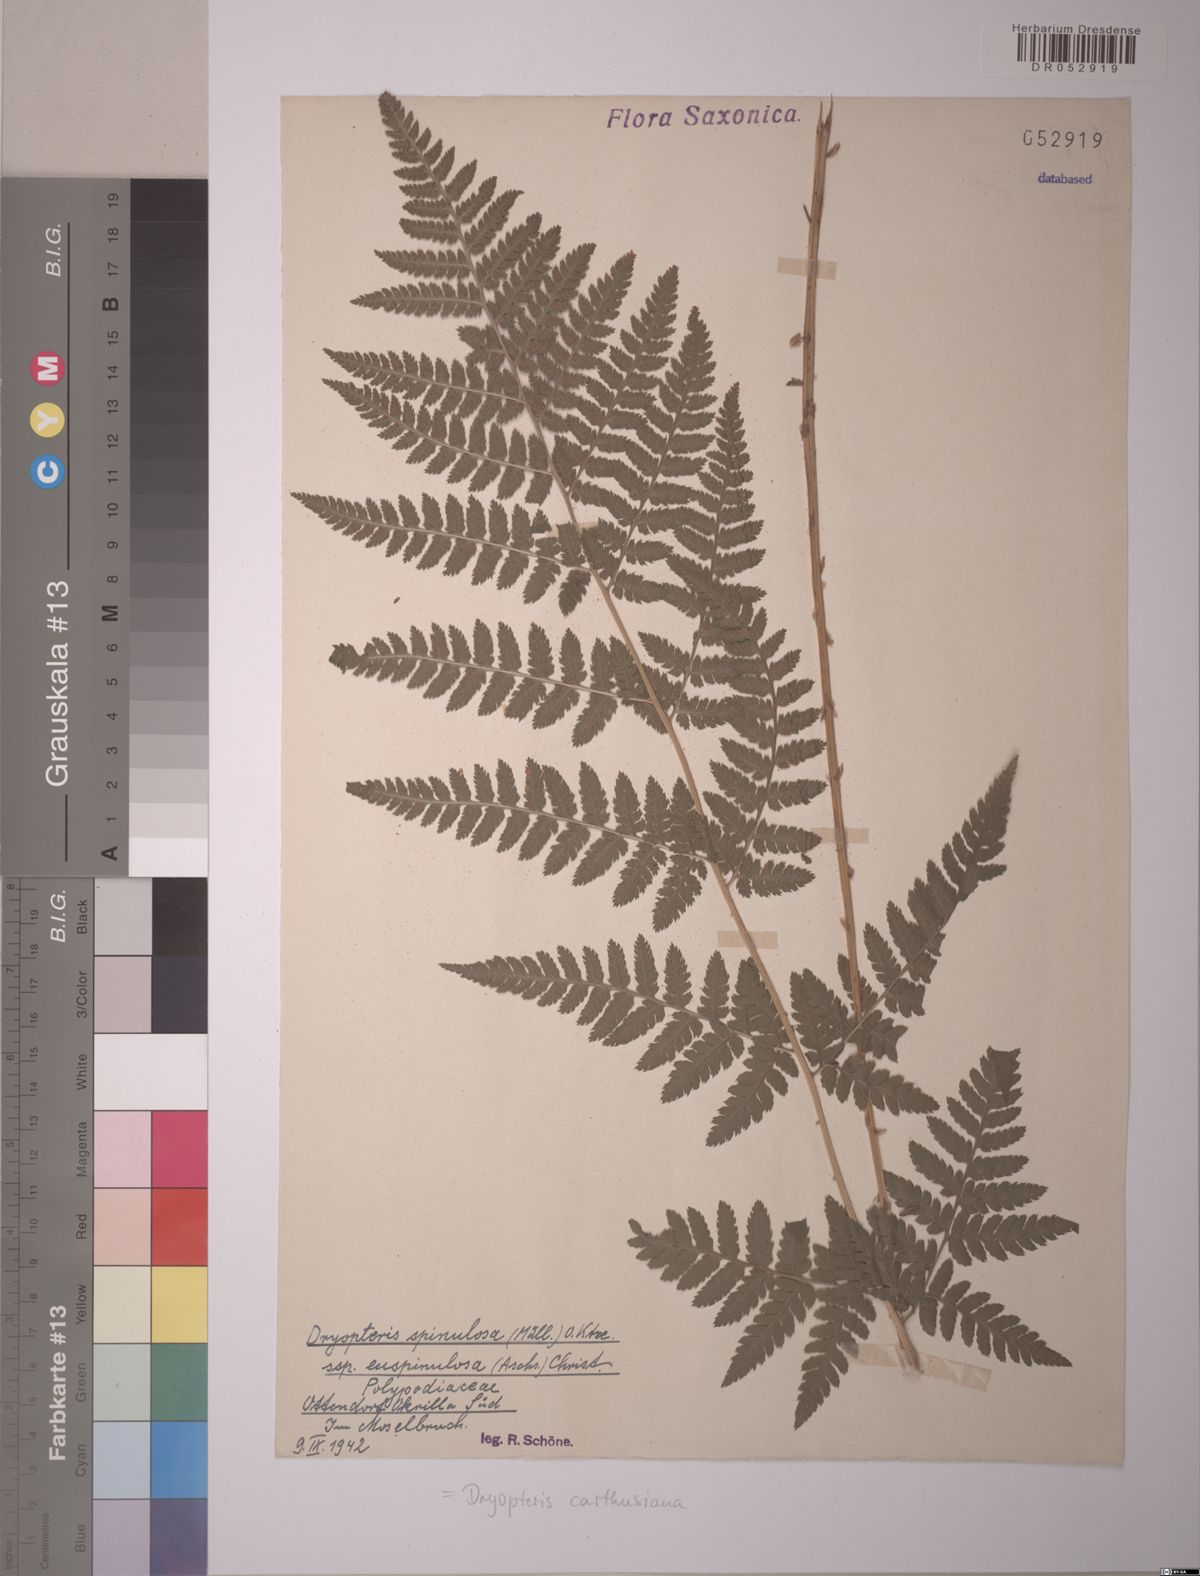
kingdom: Plantae
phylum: Tracheophyta
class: Polypodiopsida
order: Polypodiales
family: Dryopteridaceae
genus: Dryopteris
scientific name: Dryopteris carthusiana
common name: Narrow buckler-fern
